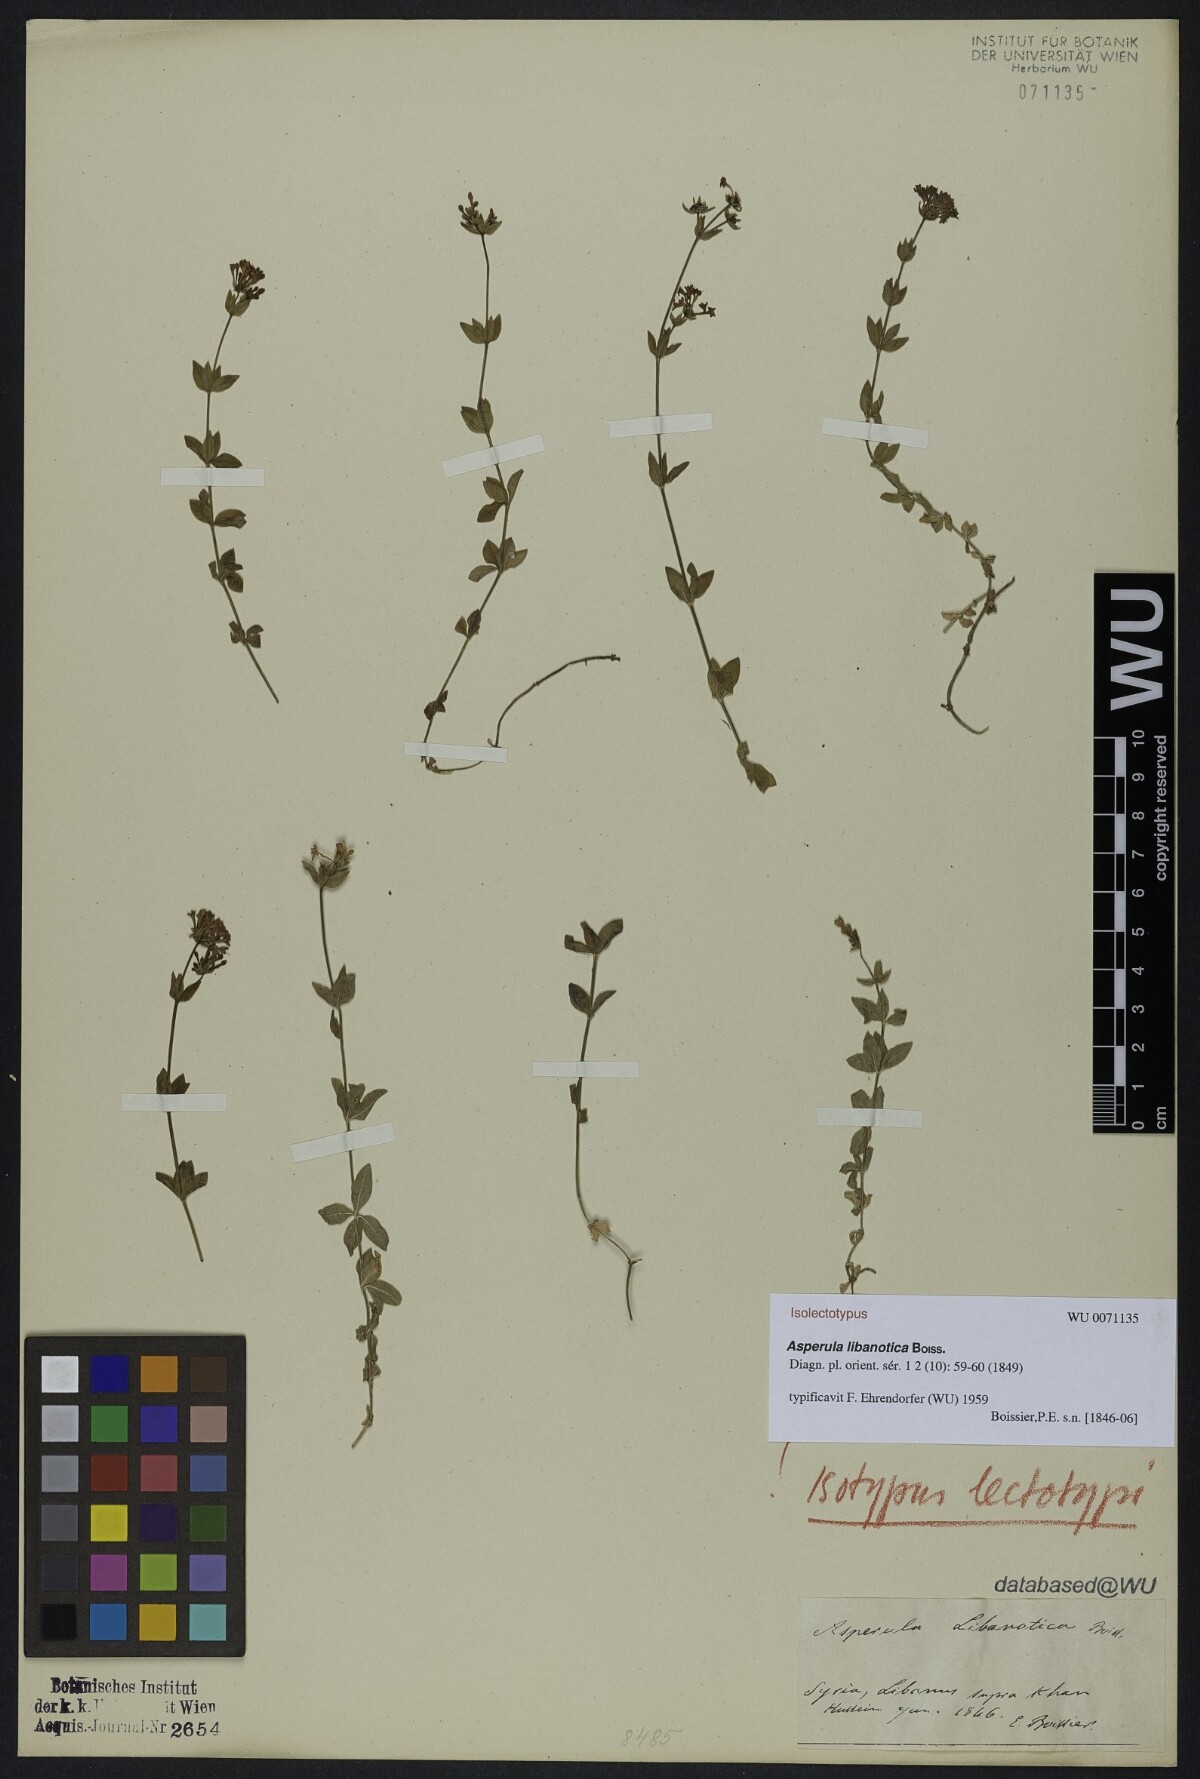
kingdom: Plantae
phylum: Tracheophyta
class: Magnoliopsida
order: Gentianales
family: Rubiaceae
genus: Asperula
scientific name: Asperula libanotica
